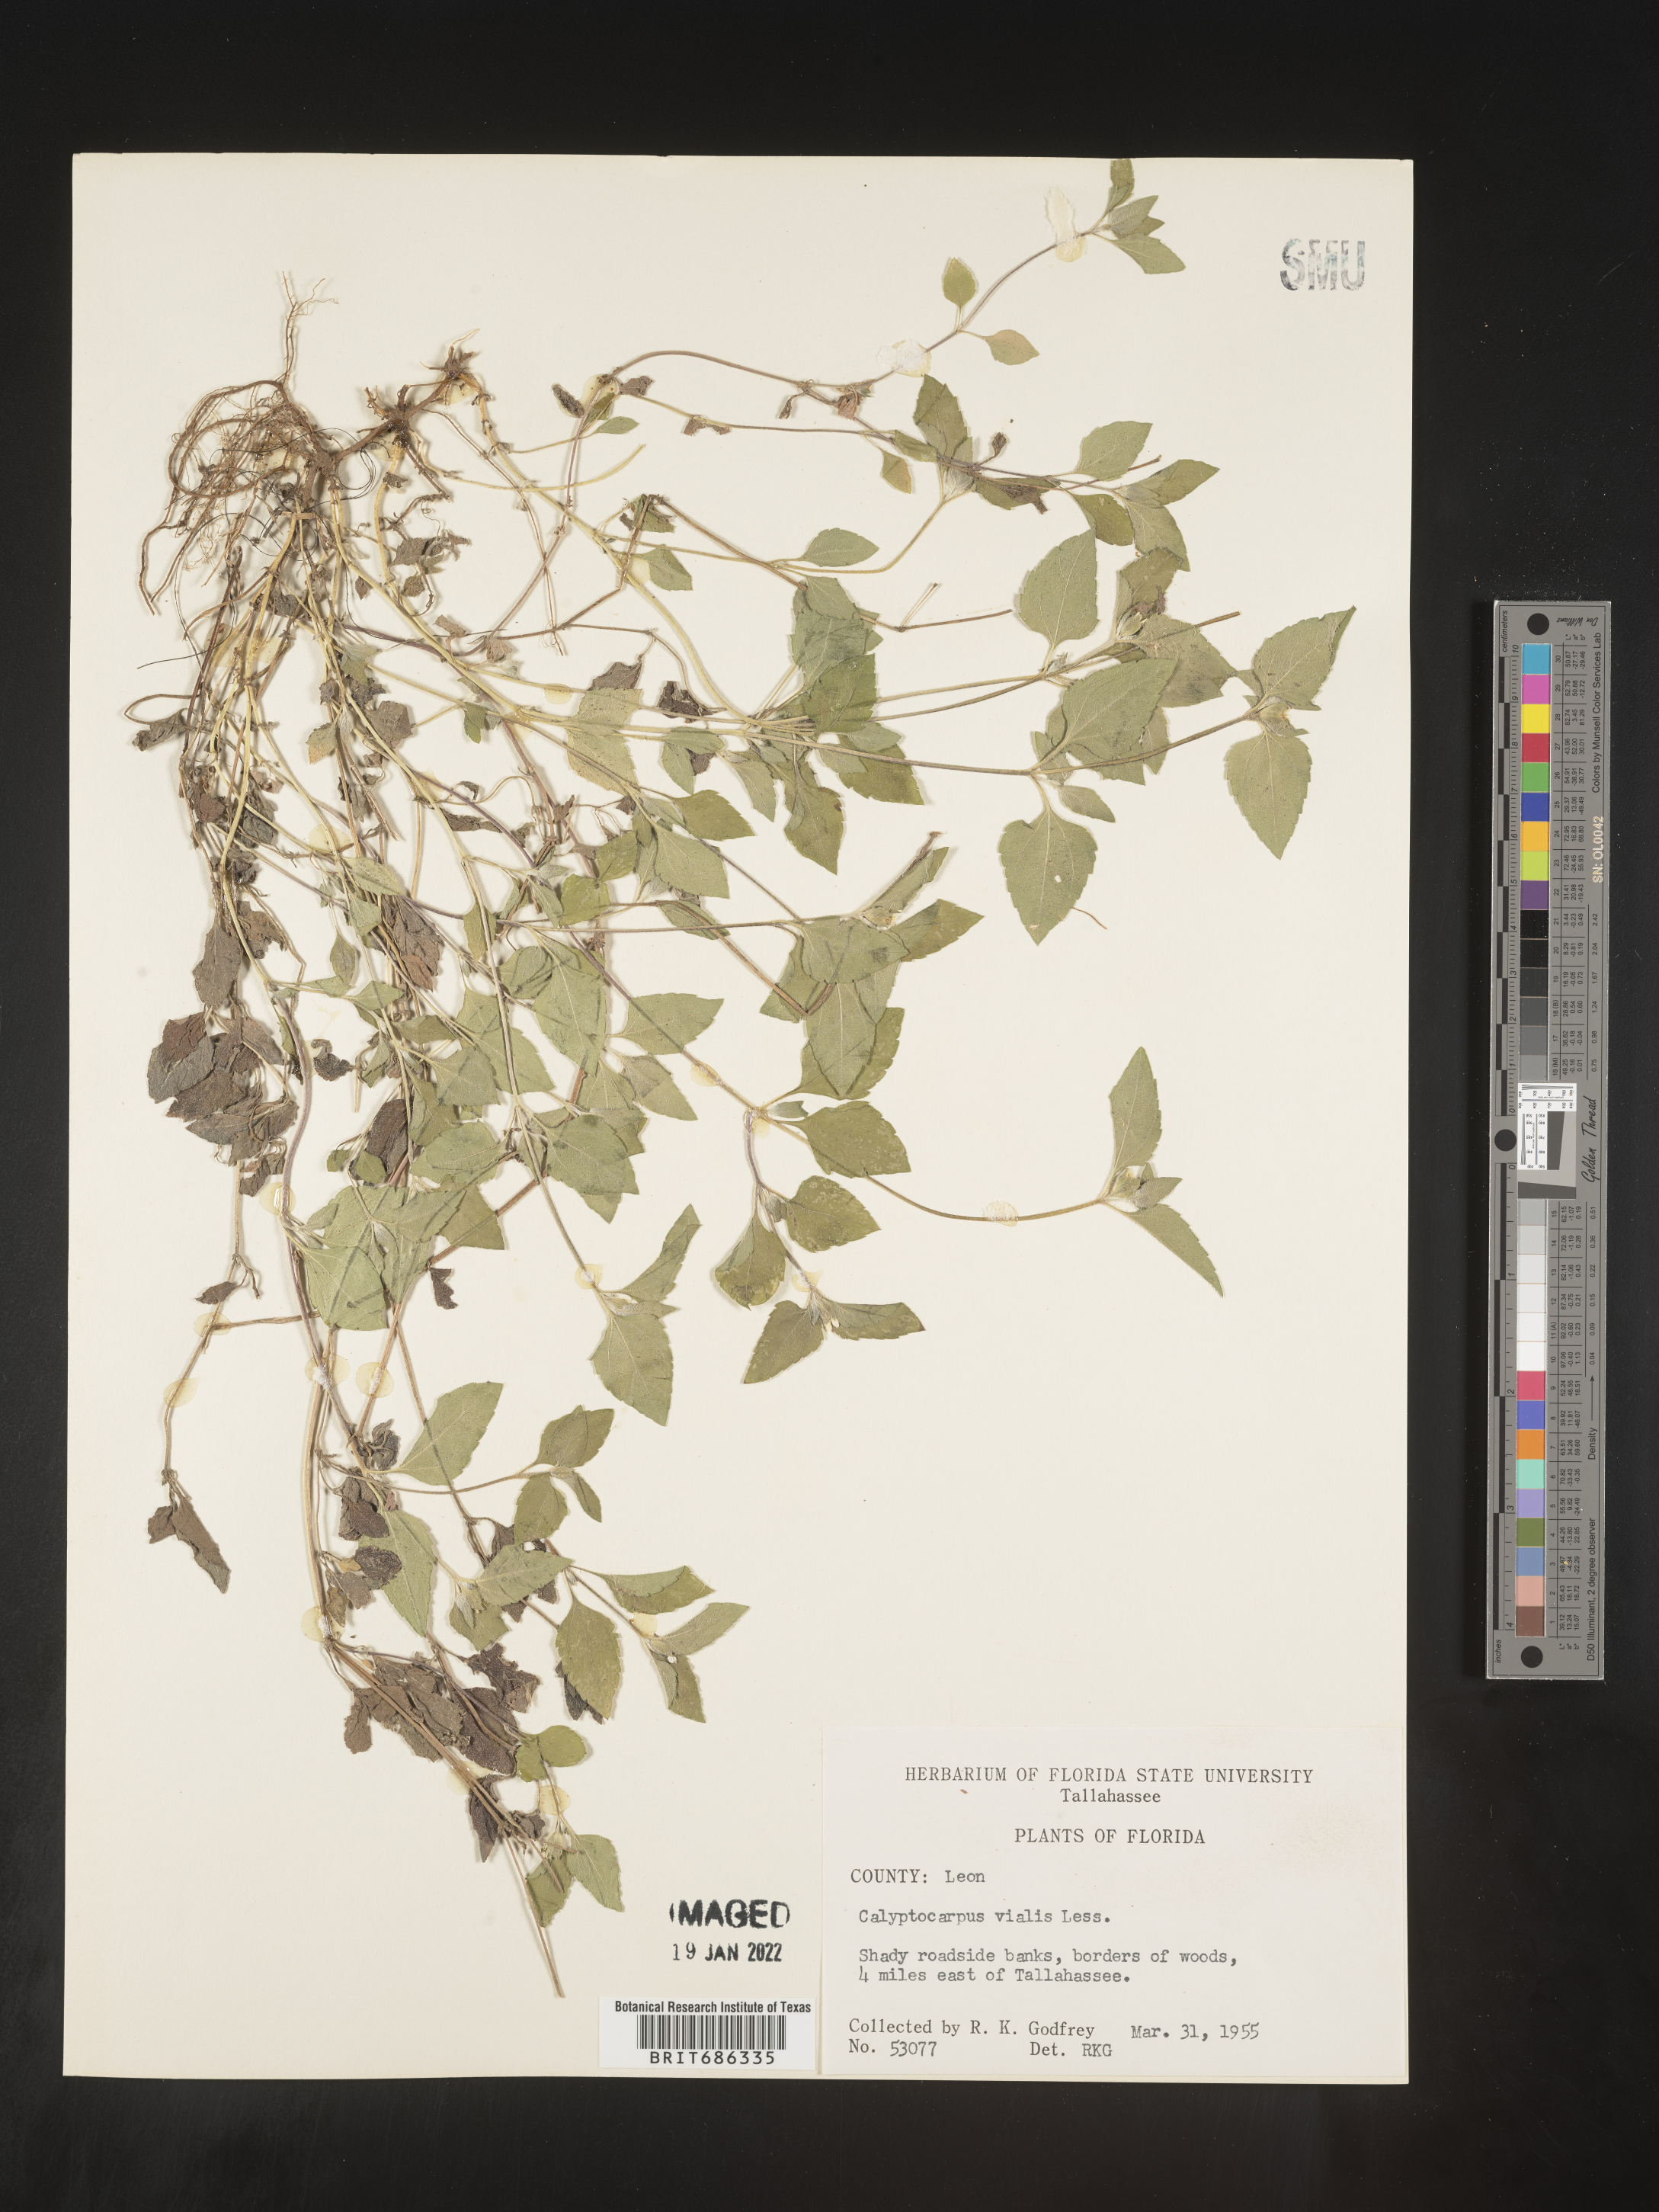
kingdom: Plantae
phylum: Tracheophyta
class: Magnoliopsida
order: Asterales
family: Asteraceae
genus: Calyptocarpus
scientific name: Calyptocarpus
